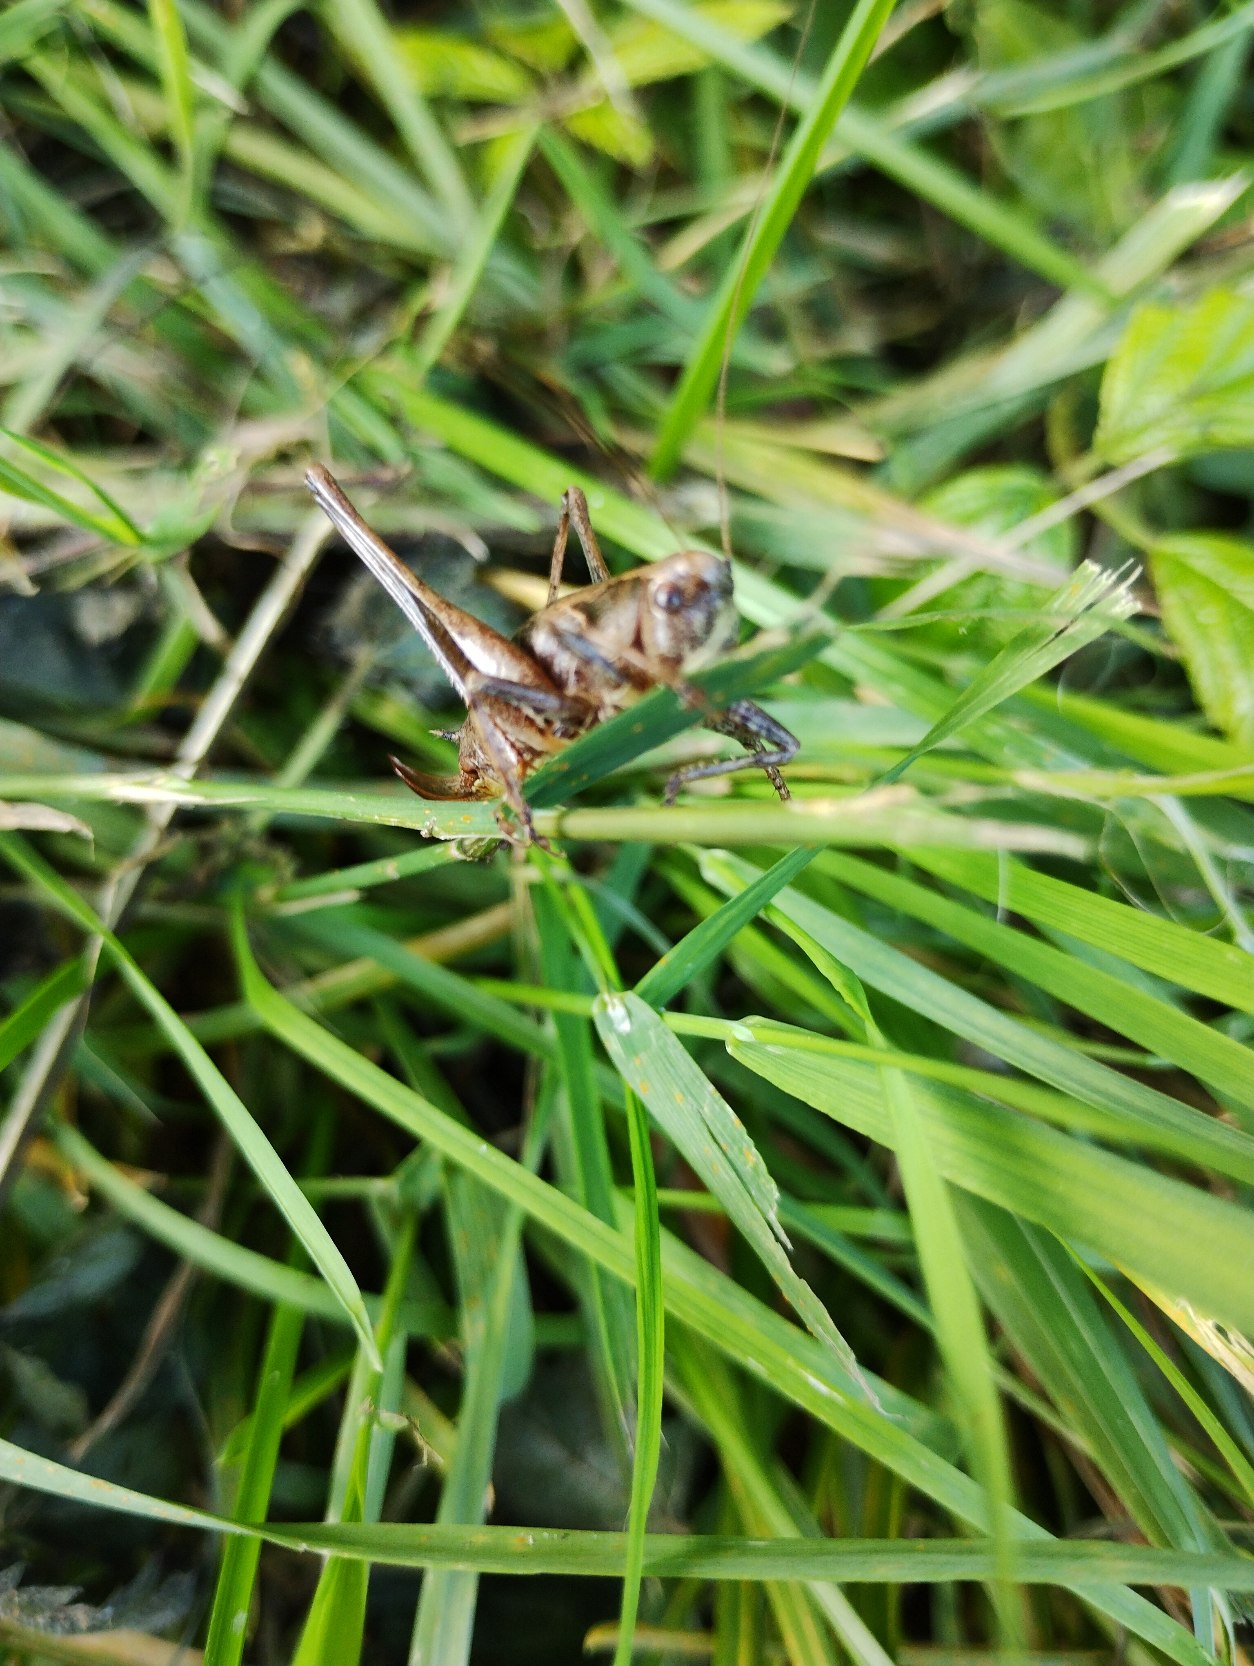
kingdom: Animalia
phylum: Arthropoda
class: Insecta
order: Orthoptera
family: Tettigoniidae
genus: Pholidoptera
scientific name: Pholidoptera griseoaptera
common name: Buskgræshoppe
